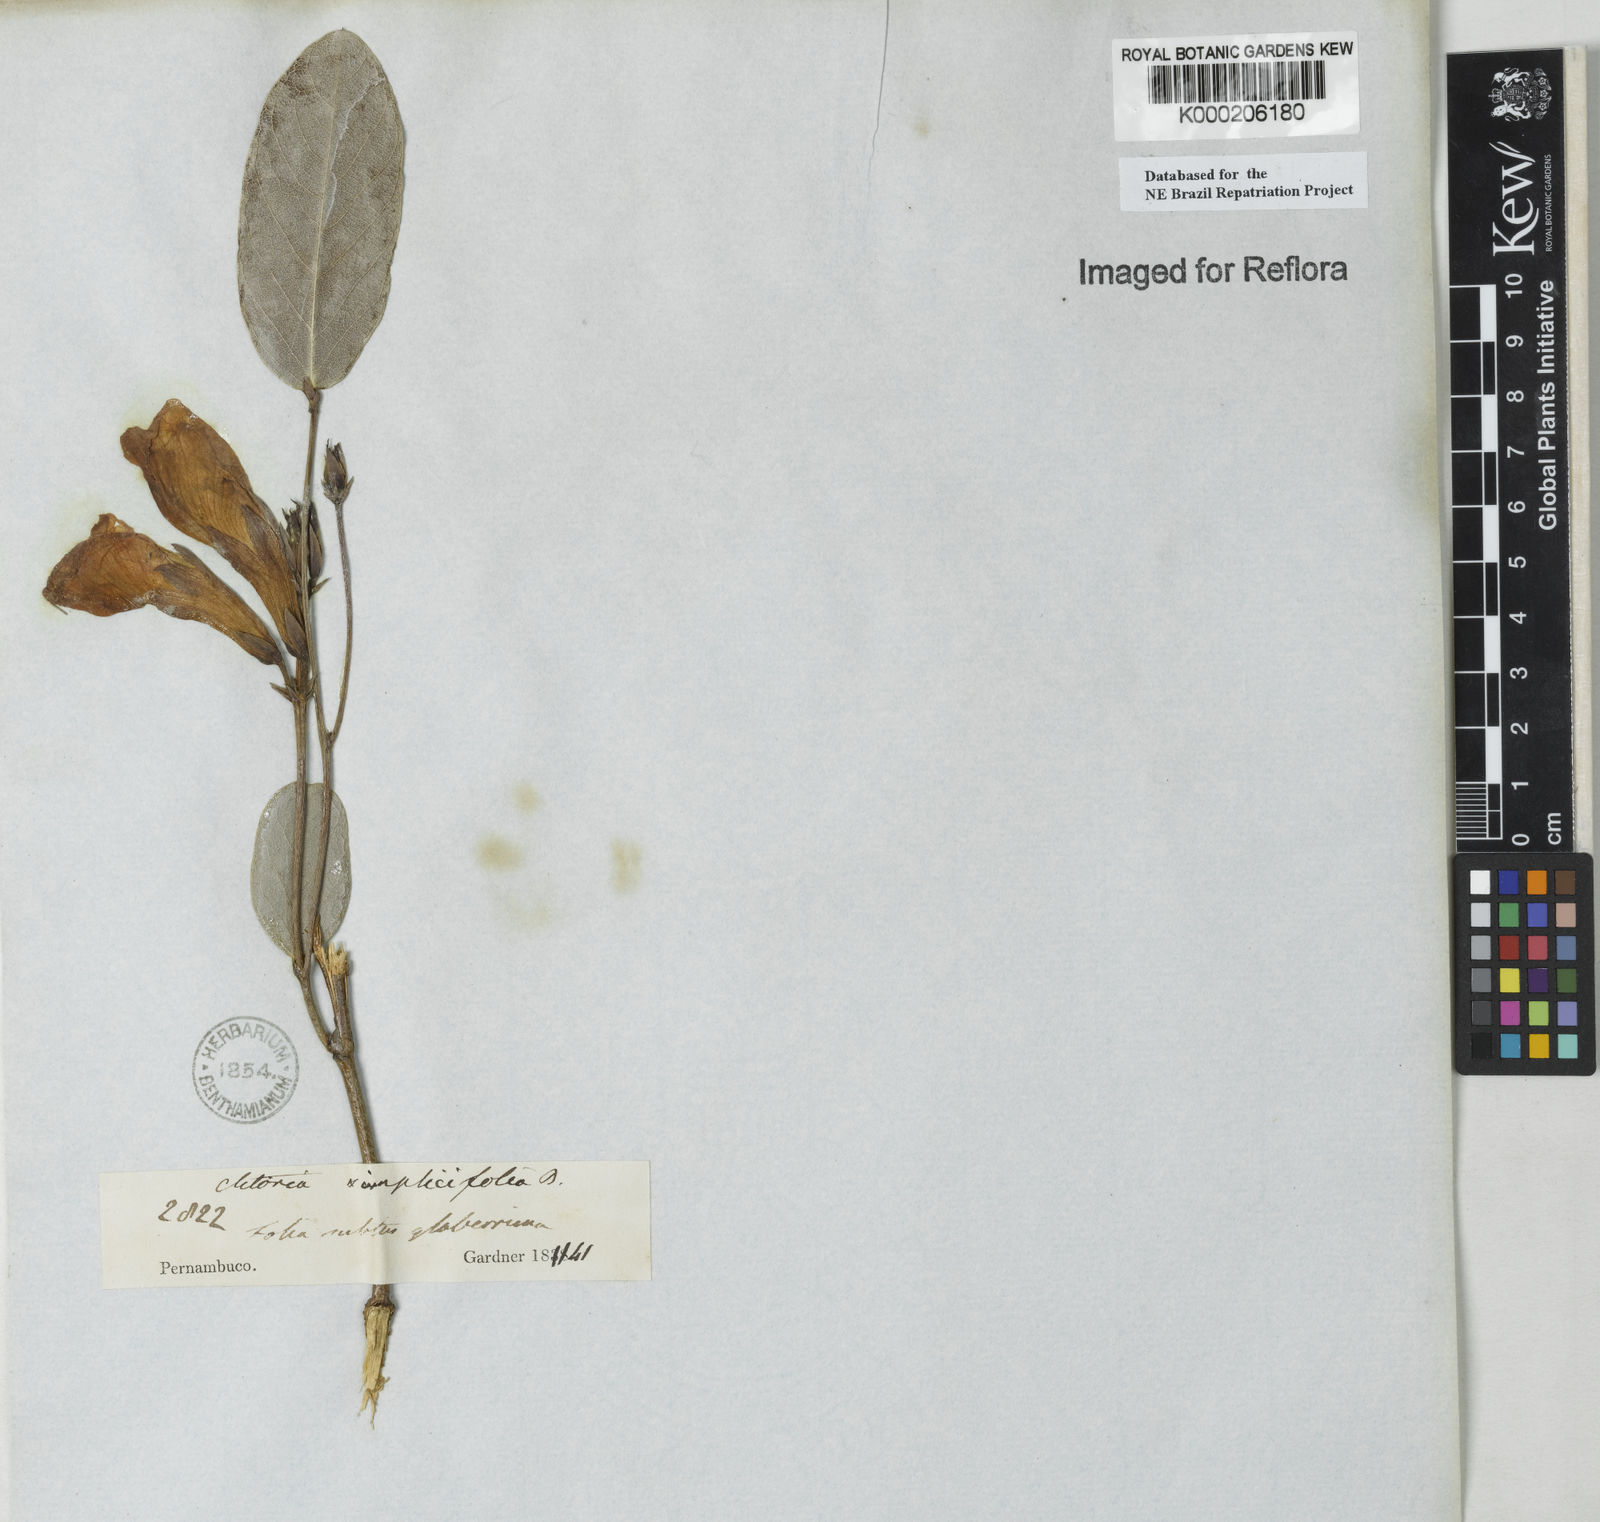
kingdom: Plantae
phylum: Tracheophyta
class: Magnoliopsida
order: Fabales
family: Fabaceae
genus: Clitoria
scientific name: Clitoria falcata
